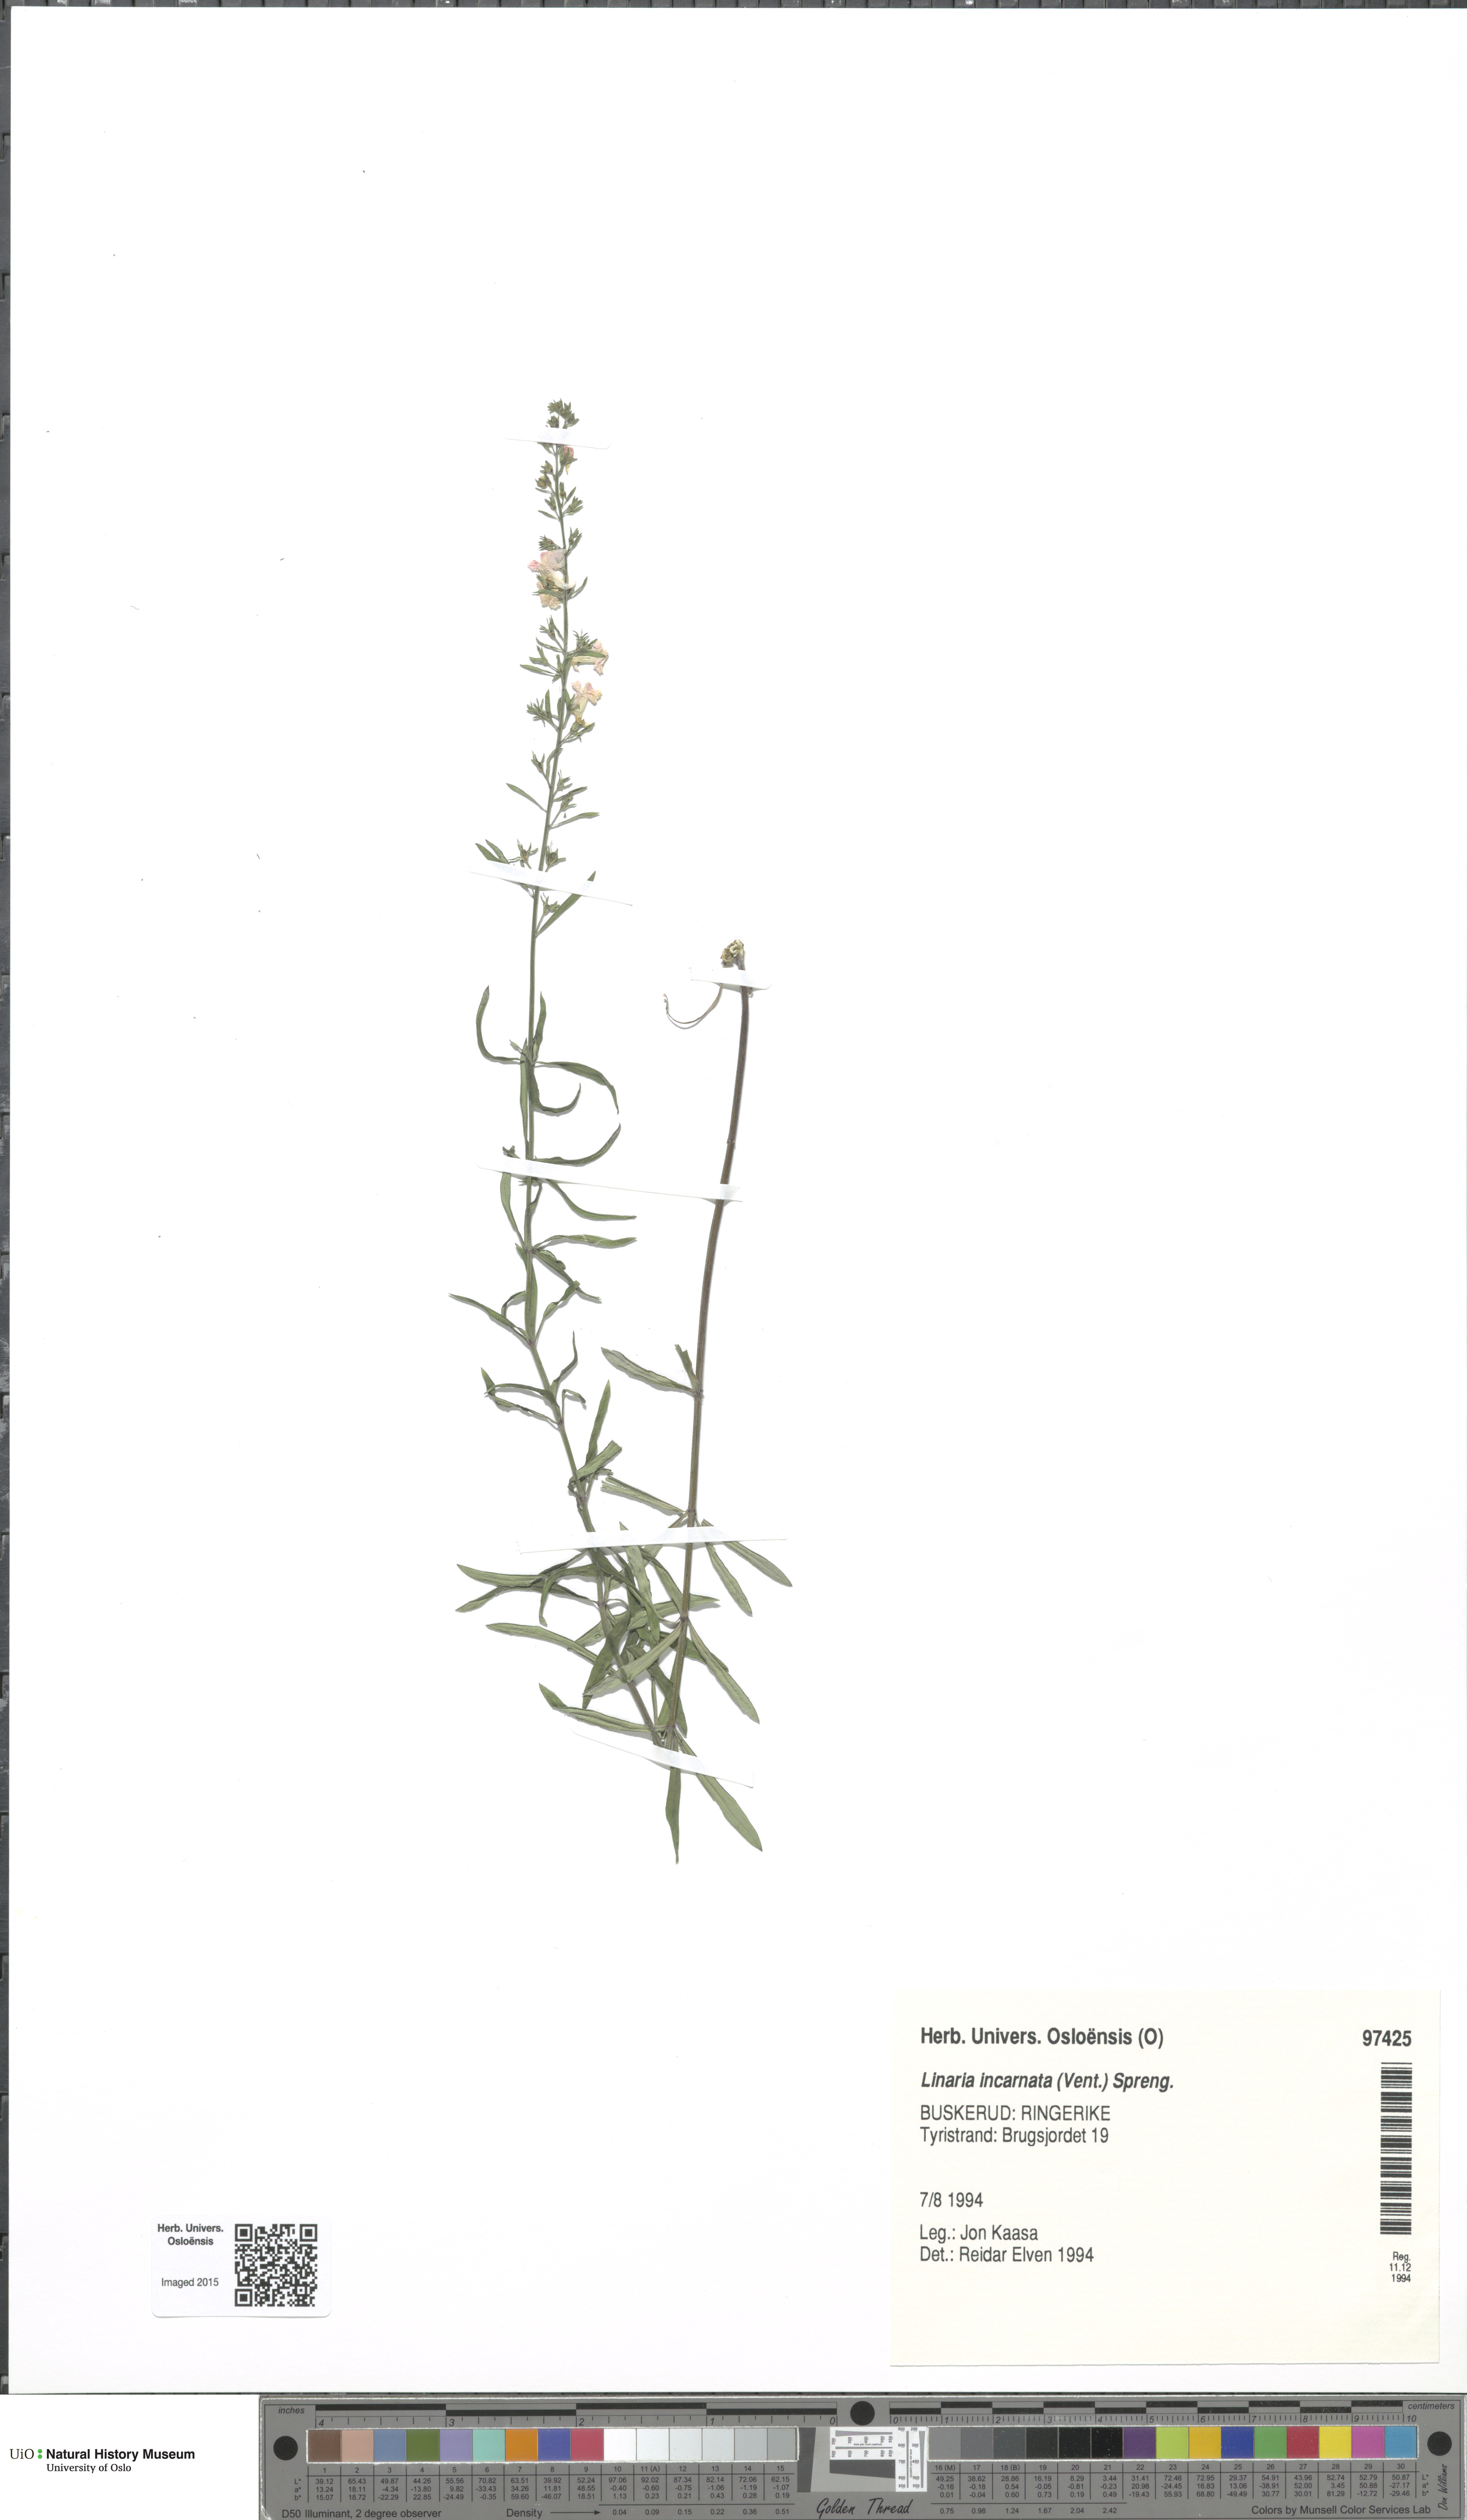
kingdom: Plantae
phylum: Tracheophyta
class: Magnoliopsida
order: Lamiales
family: Plantaginaceae
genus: Linaria
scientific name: Linaria incarnata
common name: Annual toadflax
